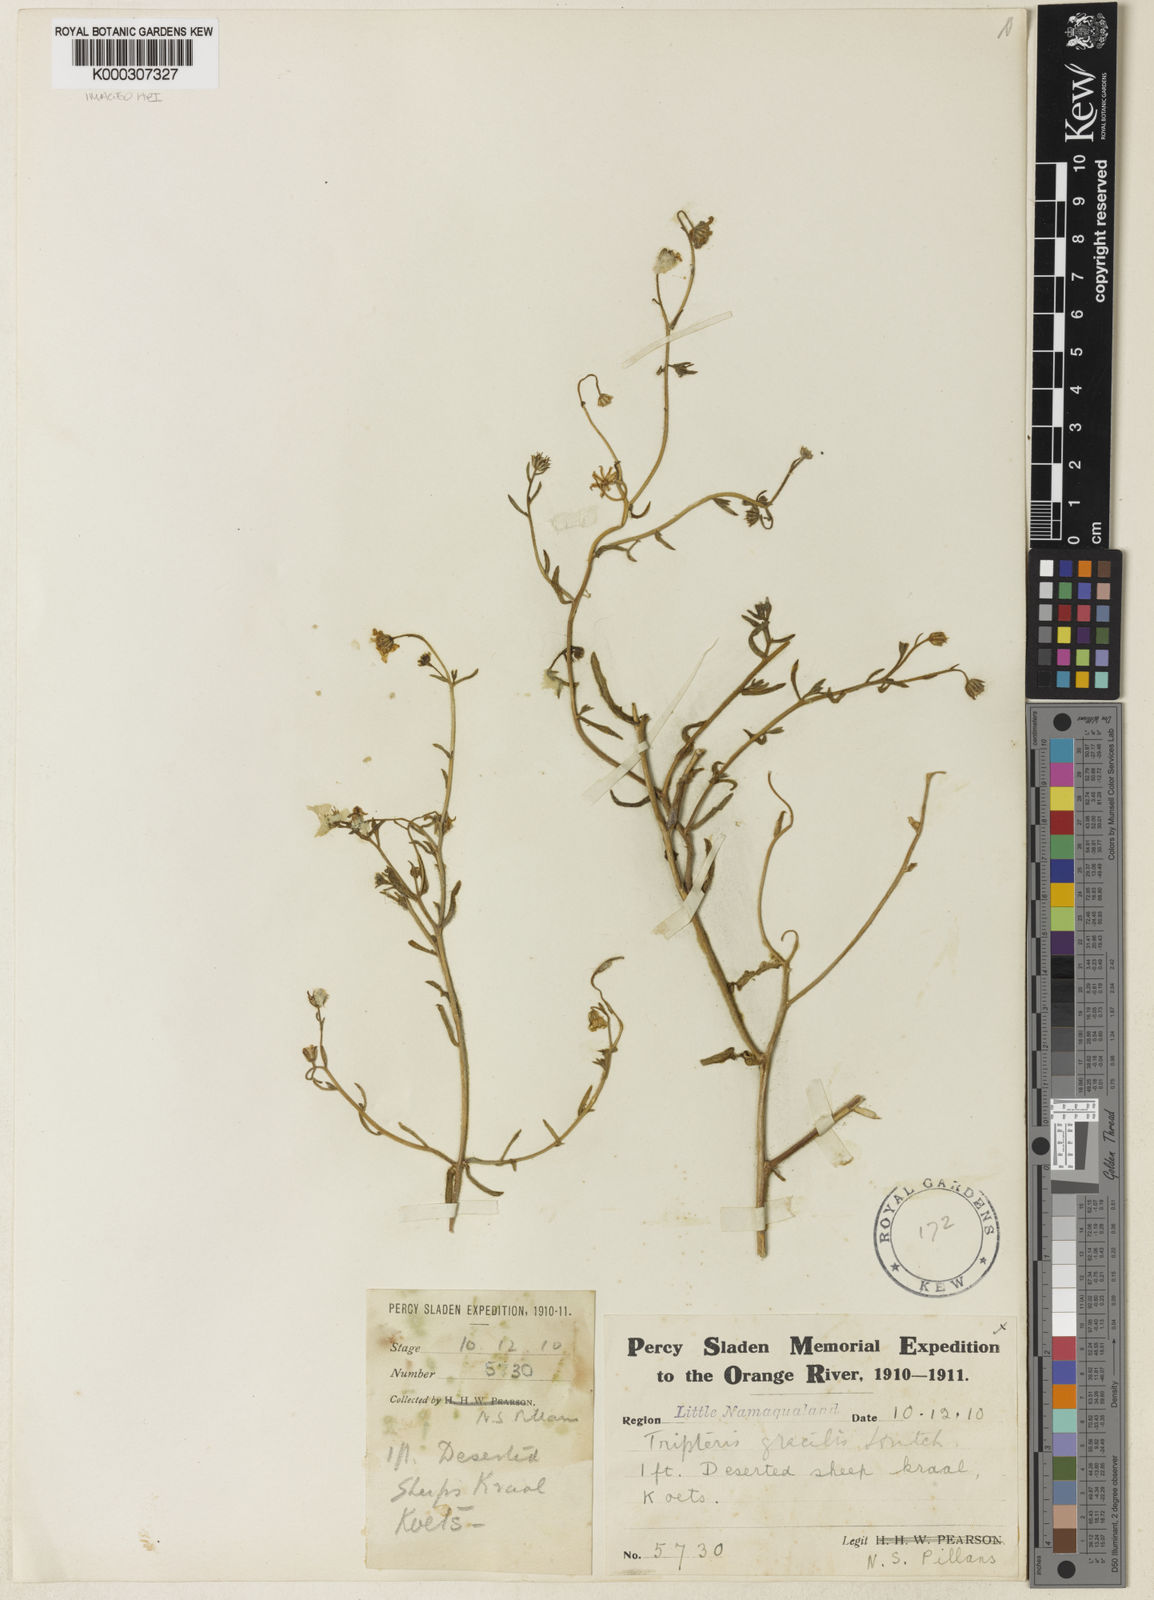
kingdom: Plantae
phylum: Tracheophyta
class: Magnoliopsida
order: Asterales
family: Asteraceae
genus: Osteospermum
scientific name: Osteospermum amplectens
